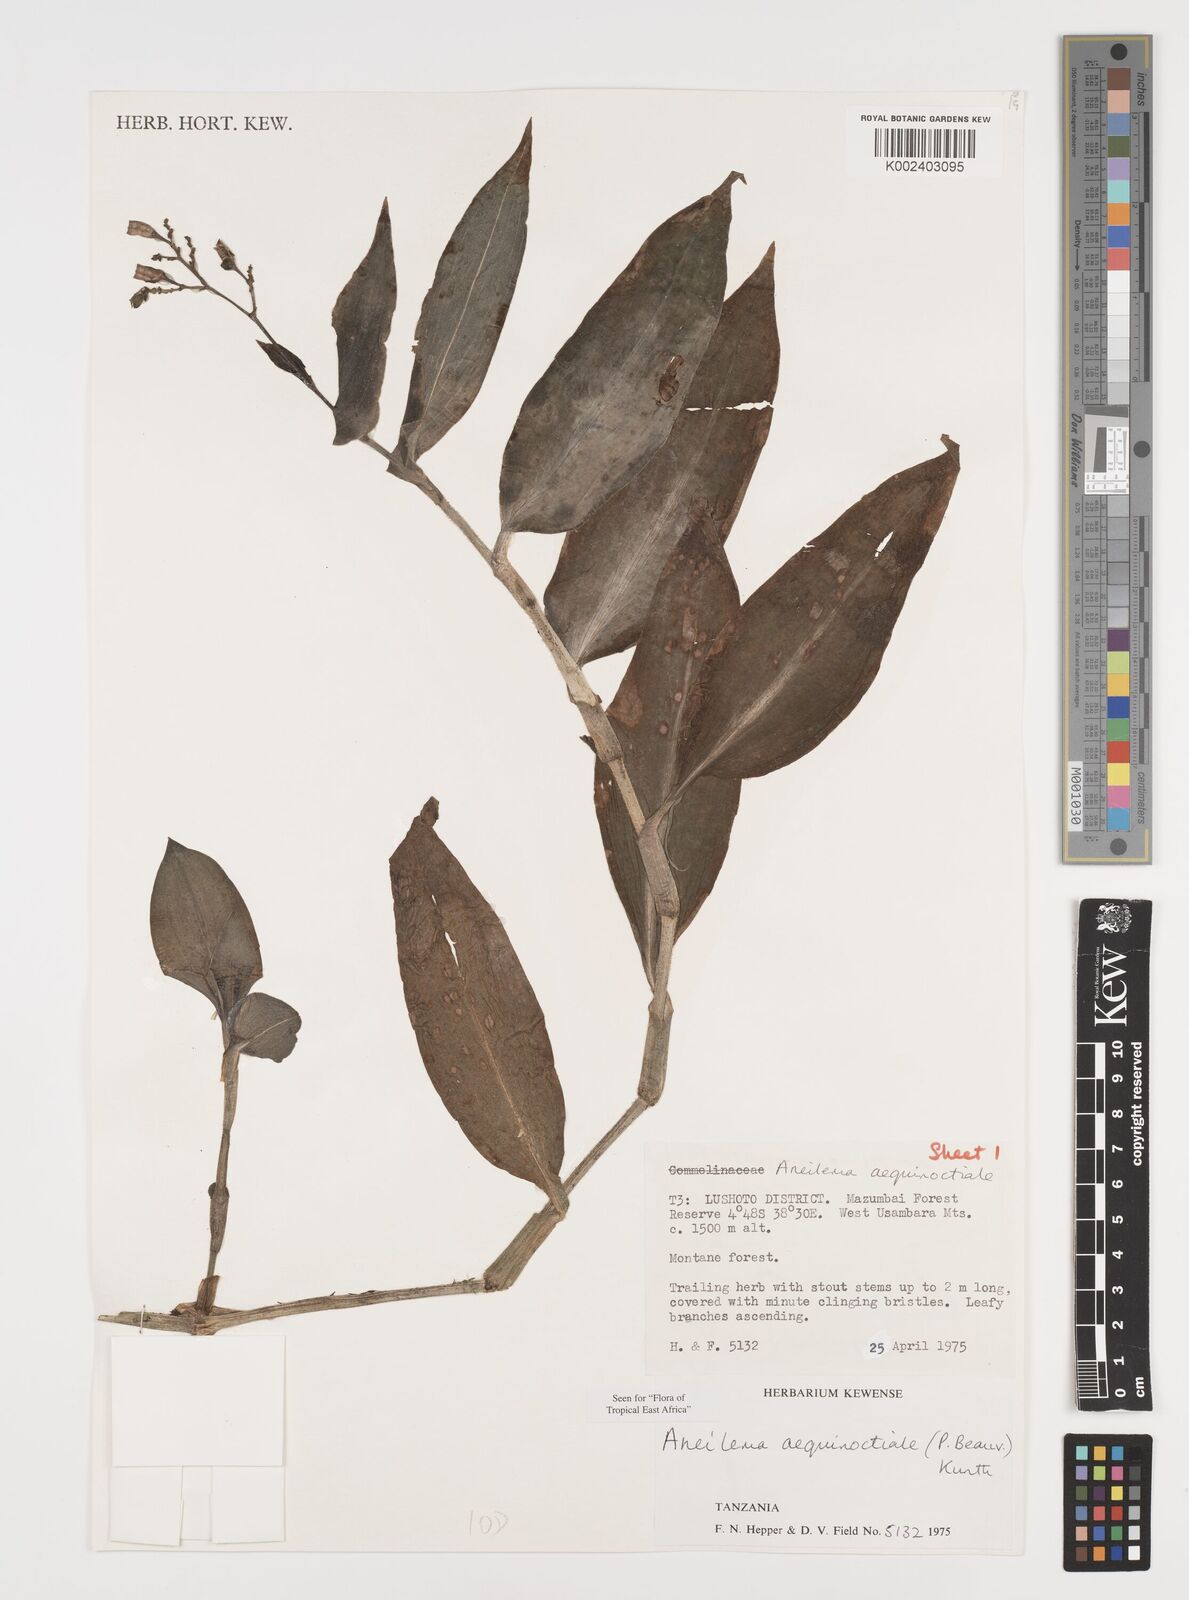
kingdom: Plantae
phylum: Tracheophyta
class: Liliopsida
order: Commelinales
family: Commelinaceae
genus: Aneilema
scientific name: Aneilema aequinoctiale
